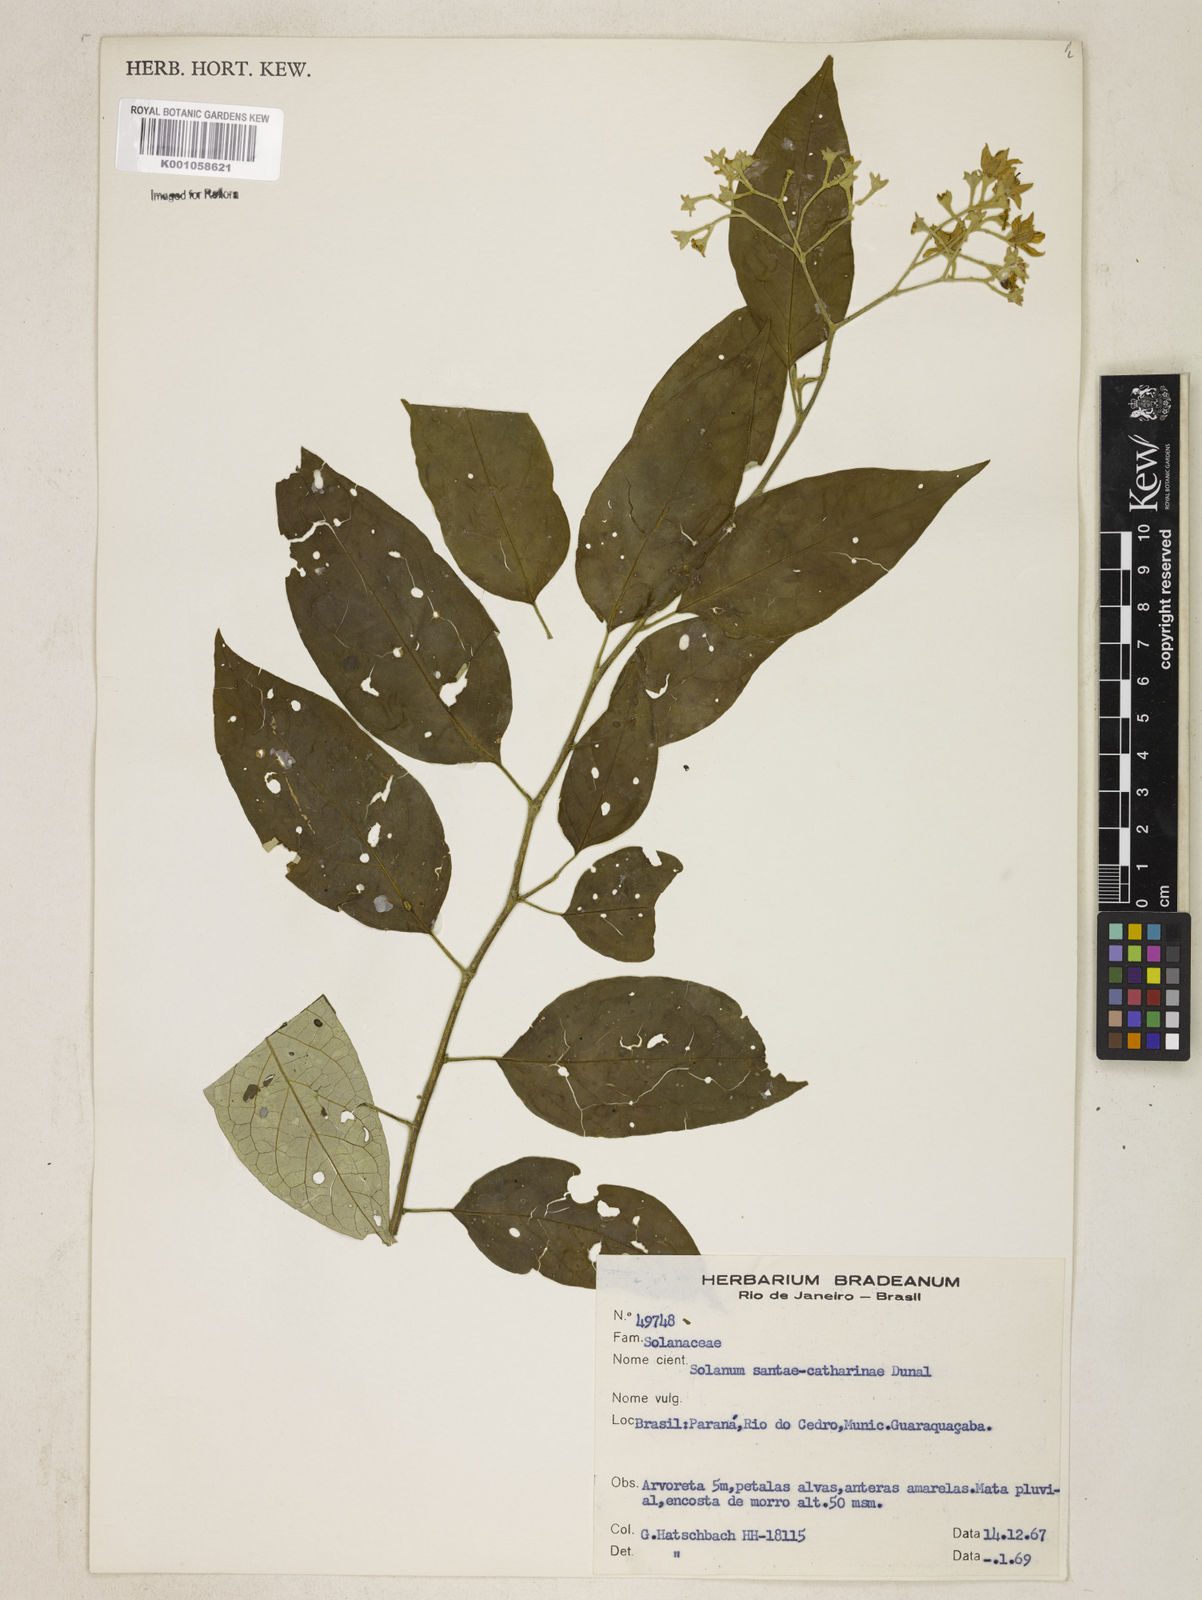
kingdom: Plantae
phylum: Tracheophyta
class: Magnoliopsida
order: Solanales
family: Solanaceae
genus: Solanum
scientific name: Solanum sanctae-catharinae
